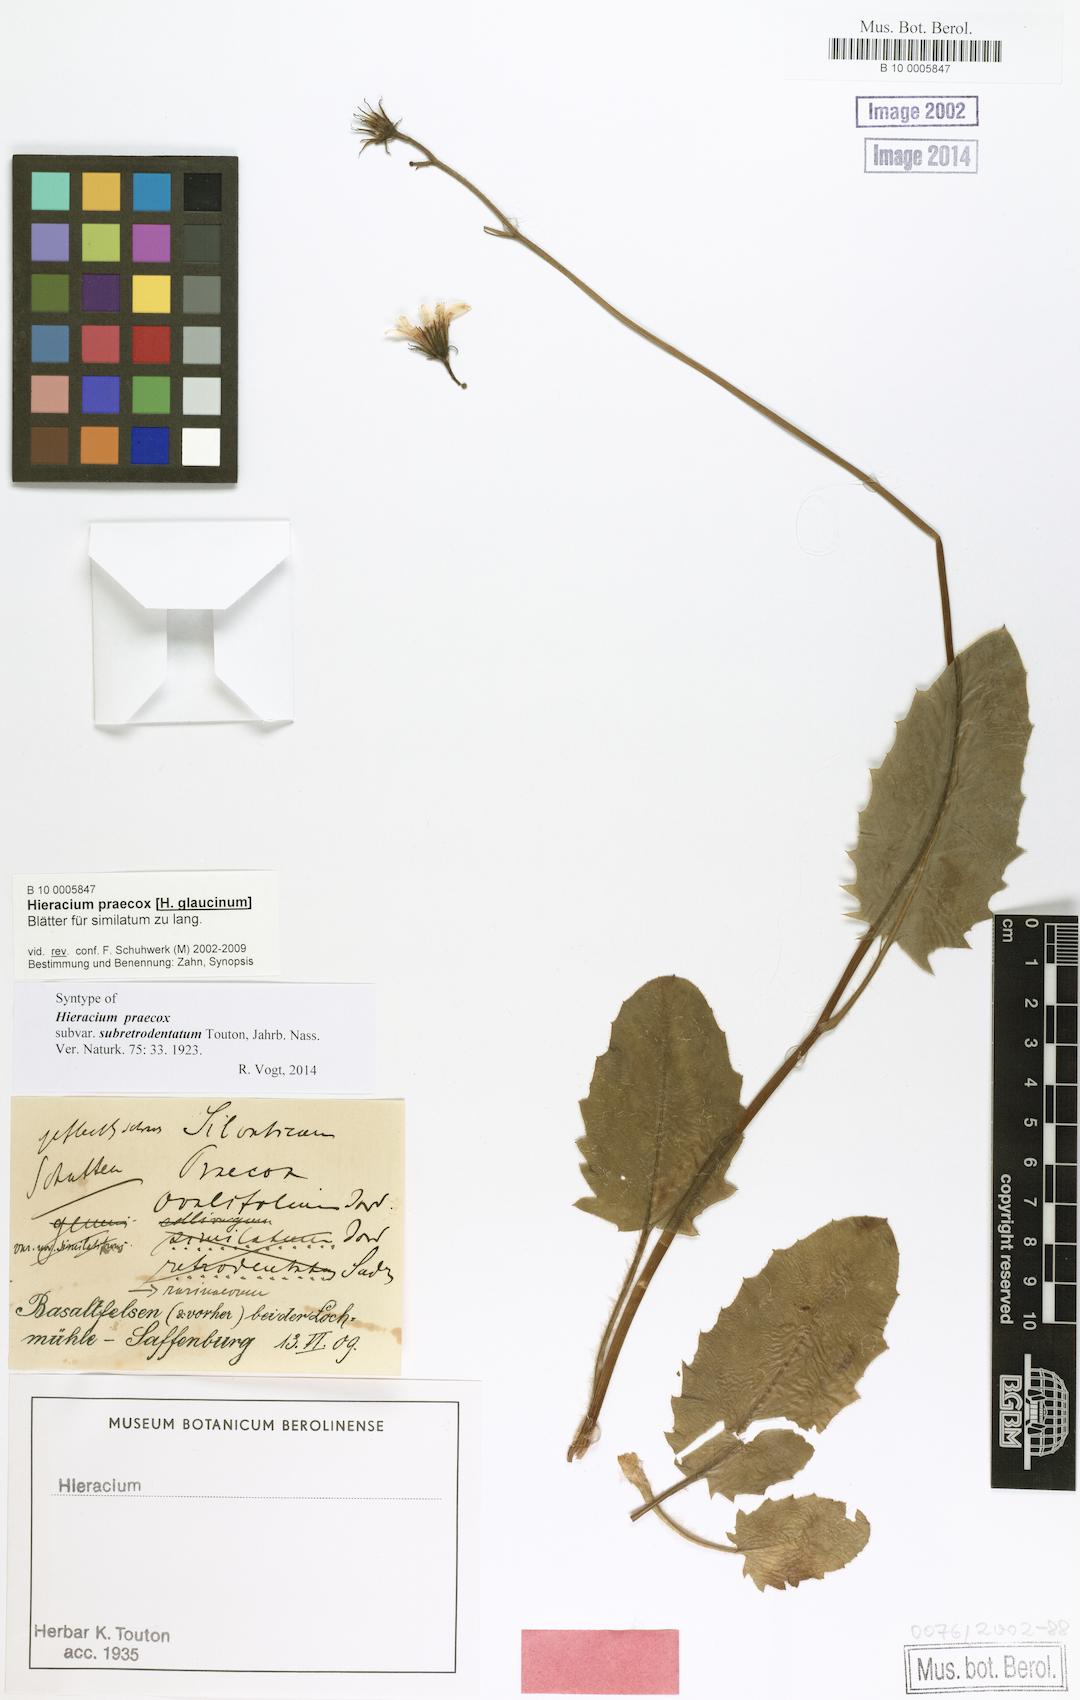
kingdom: Plantae
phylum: Tracheophyta
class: Magnoliopsida
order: Asterales
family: Asteraceae
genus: Hieracium
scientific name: Hieracium praecox
